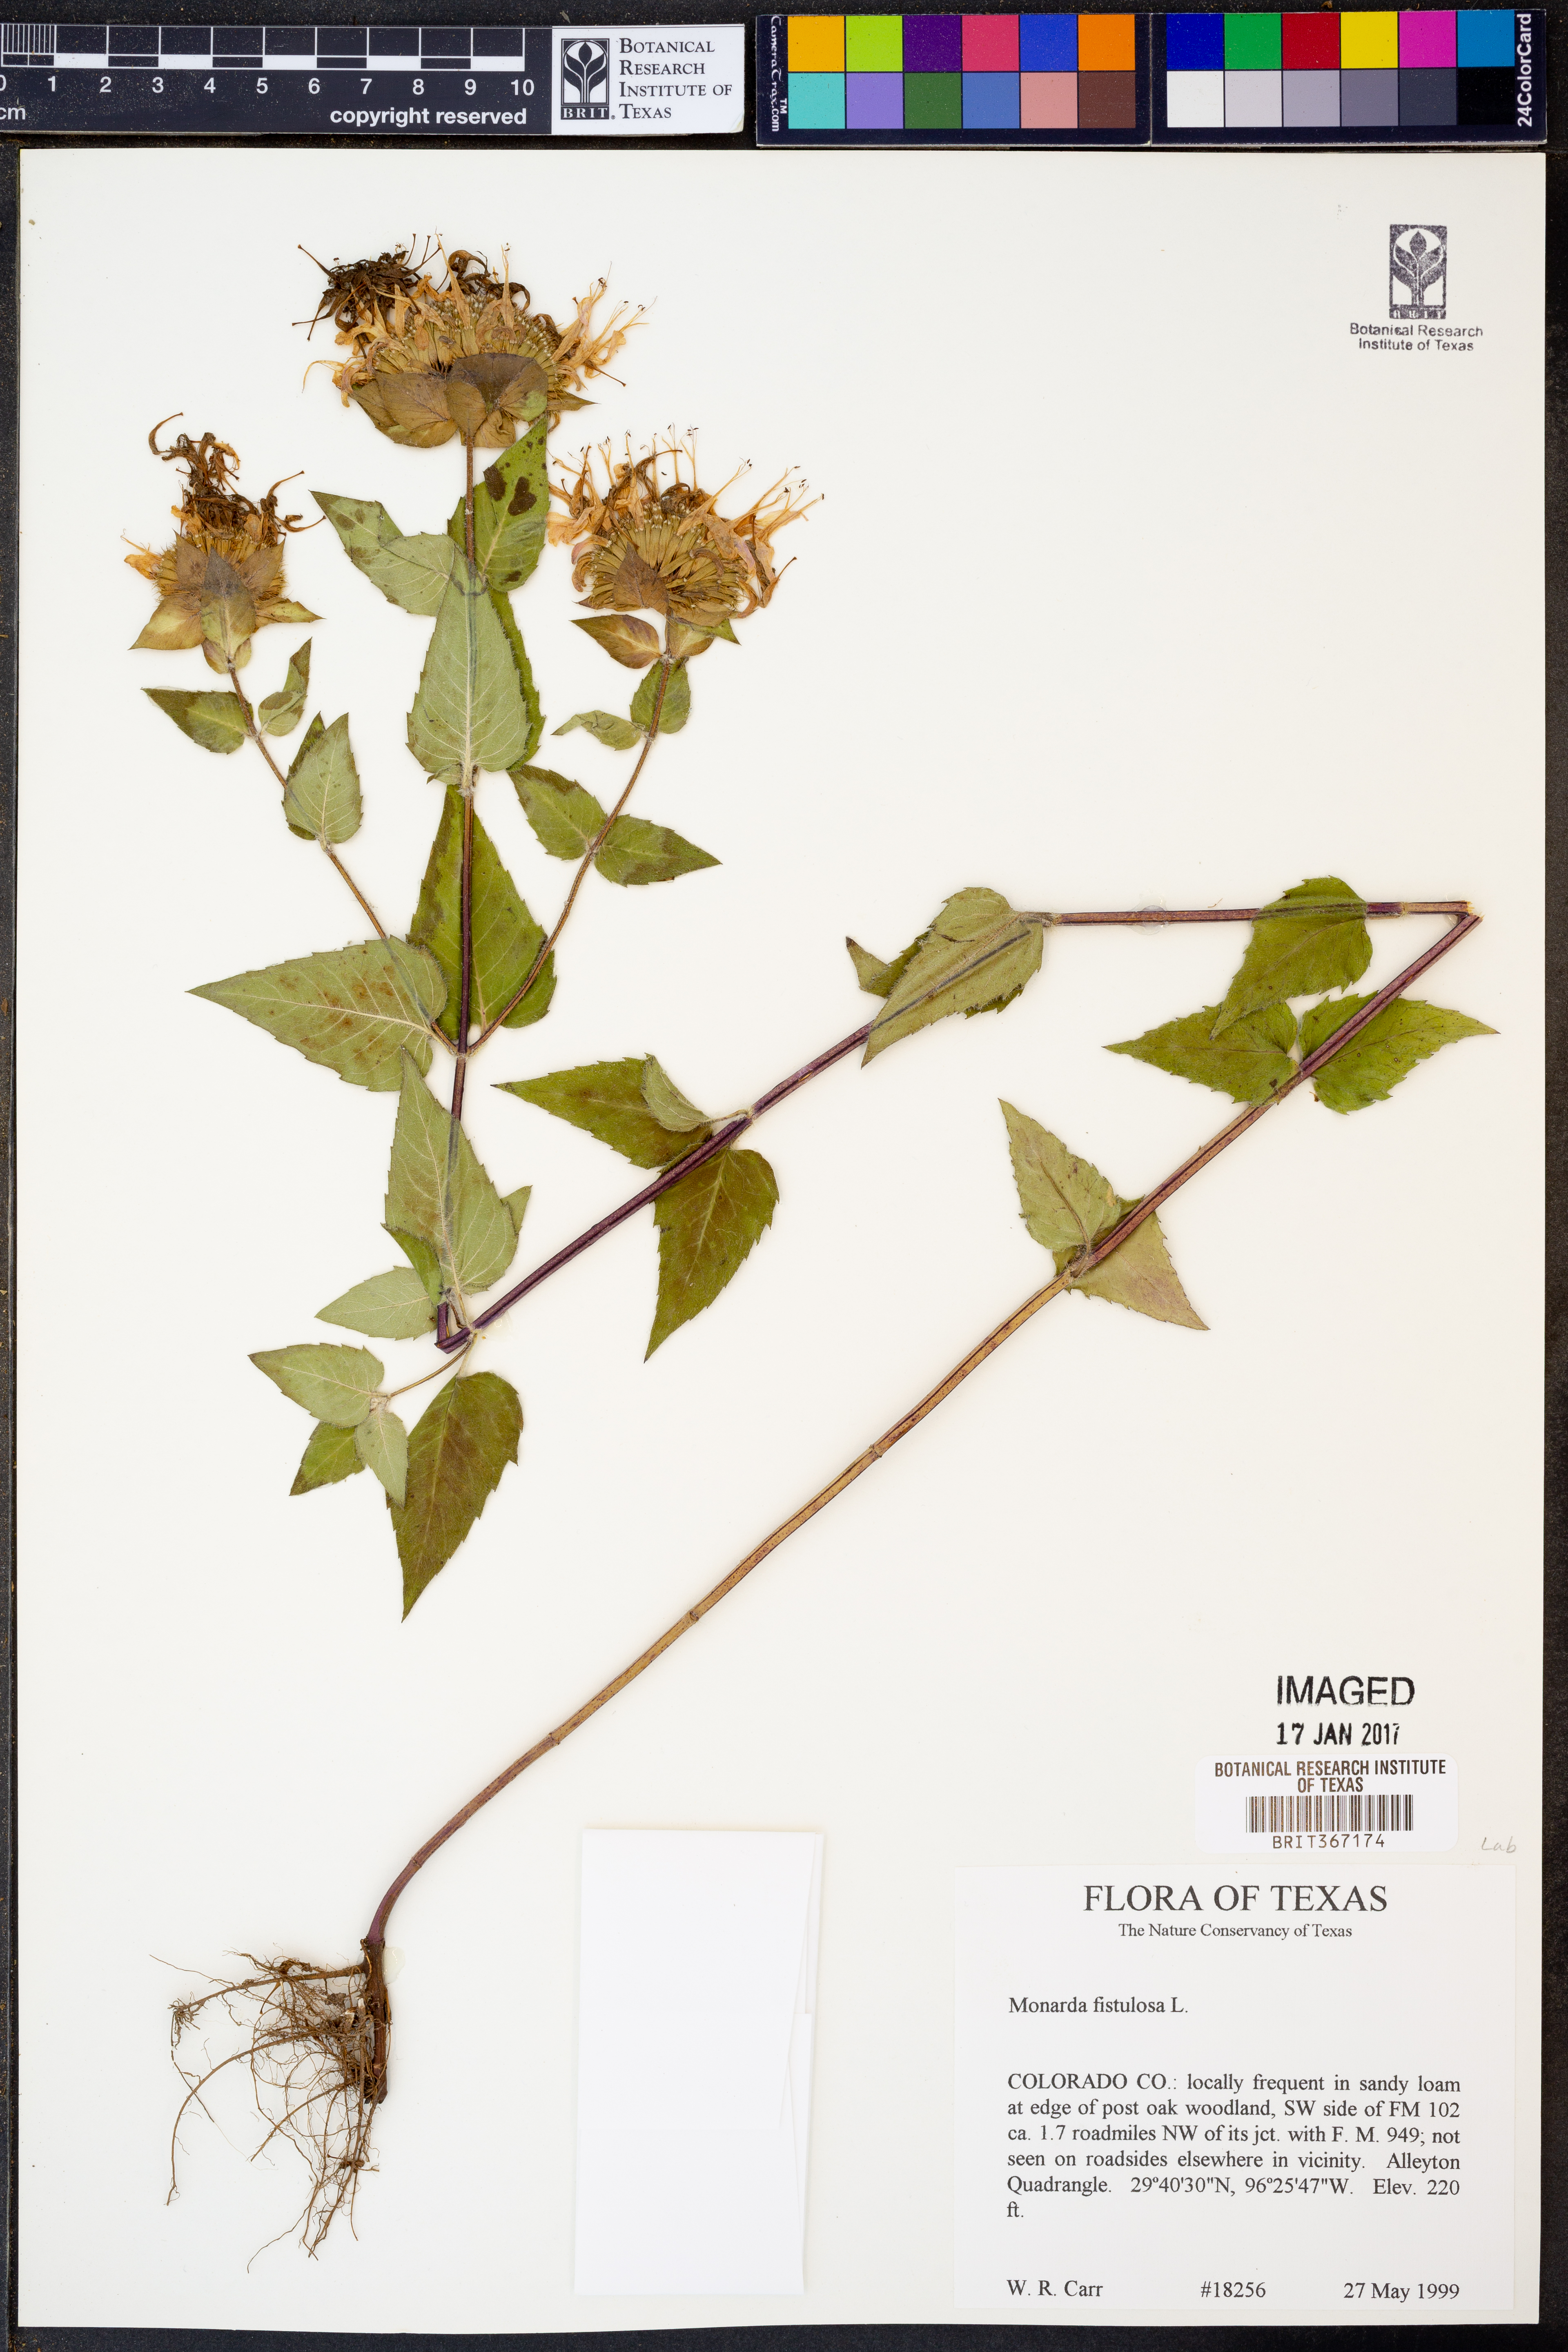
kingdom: Plantae
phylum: Tracheophyta
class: Magnoliopsida
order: Lamiales
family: Lamiaceae
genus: Monarda
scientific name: Monarda fistulosa
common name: Purple beebalm
